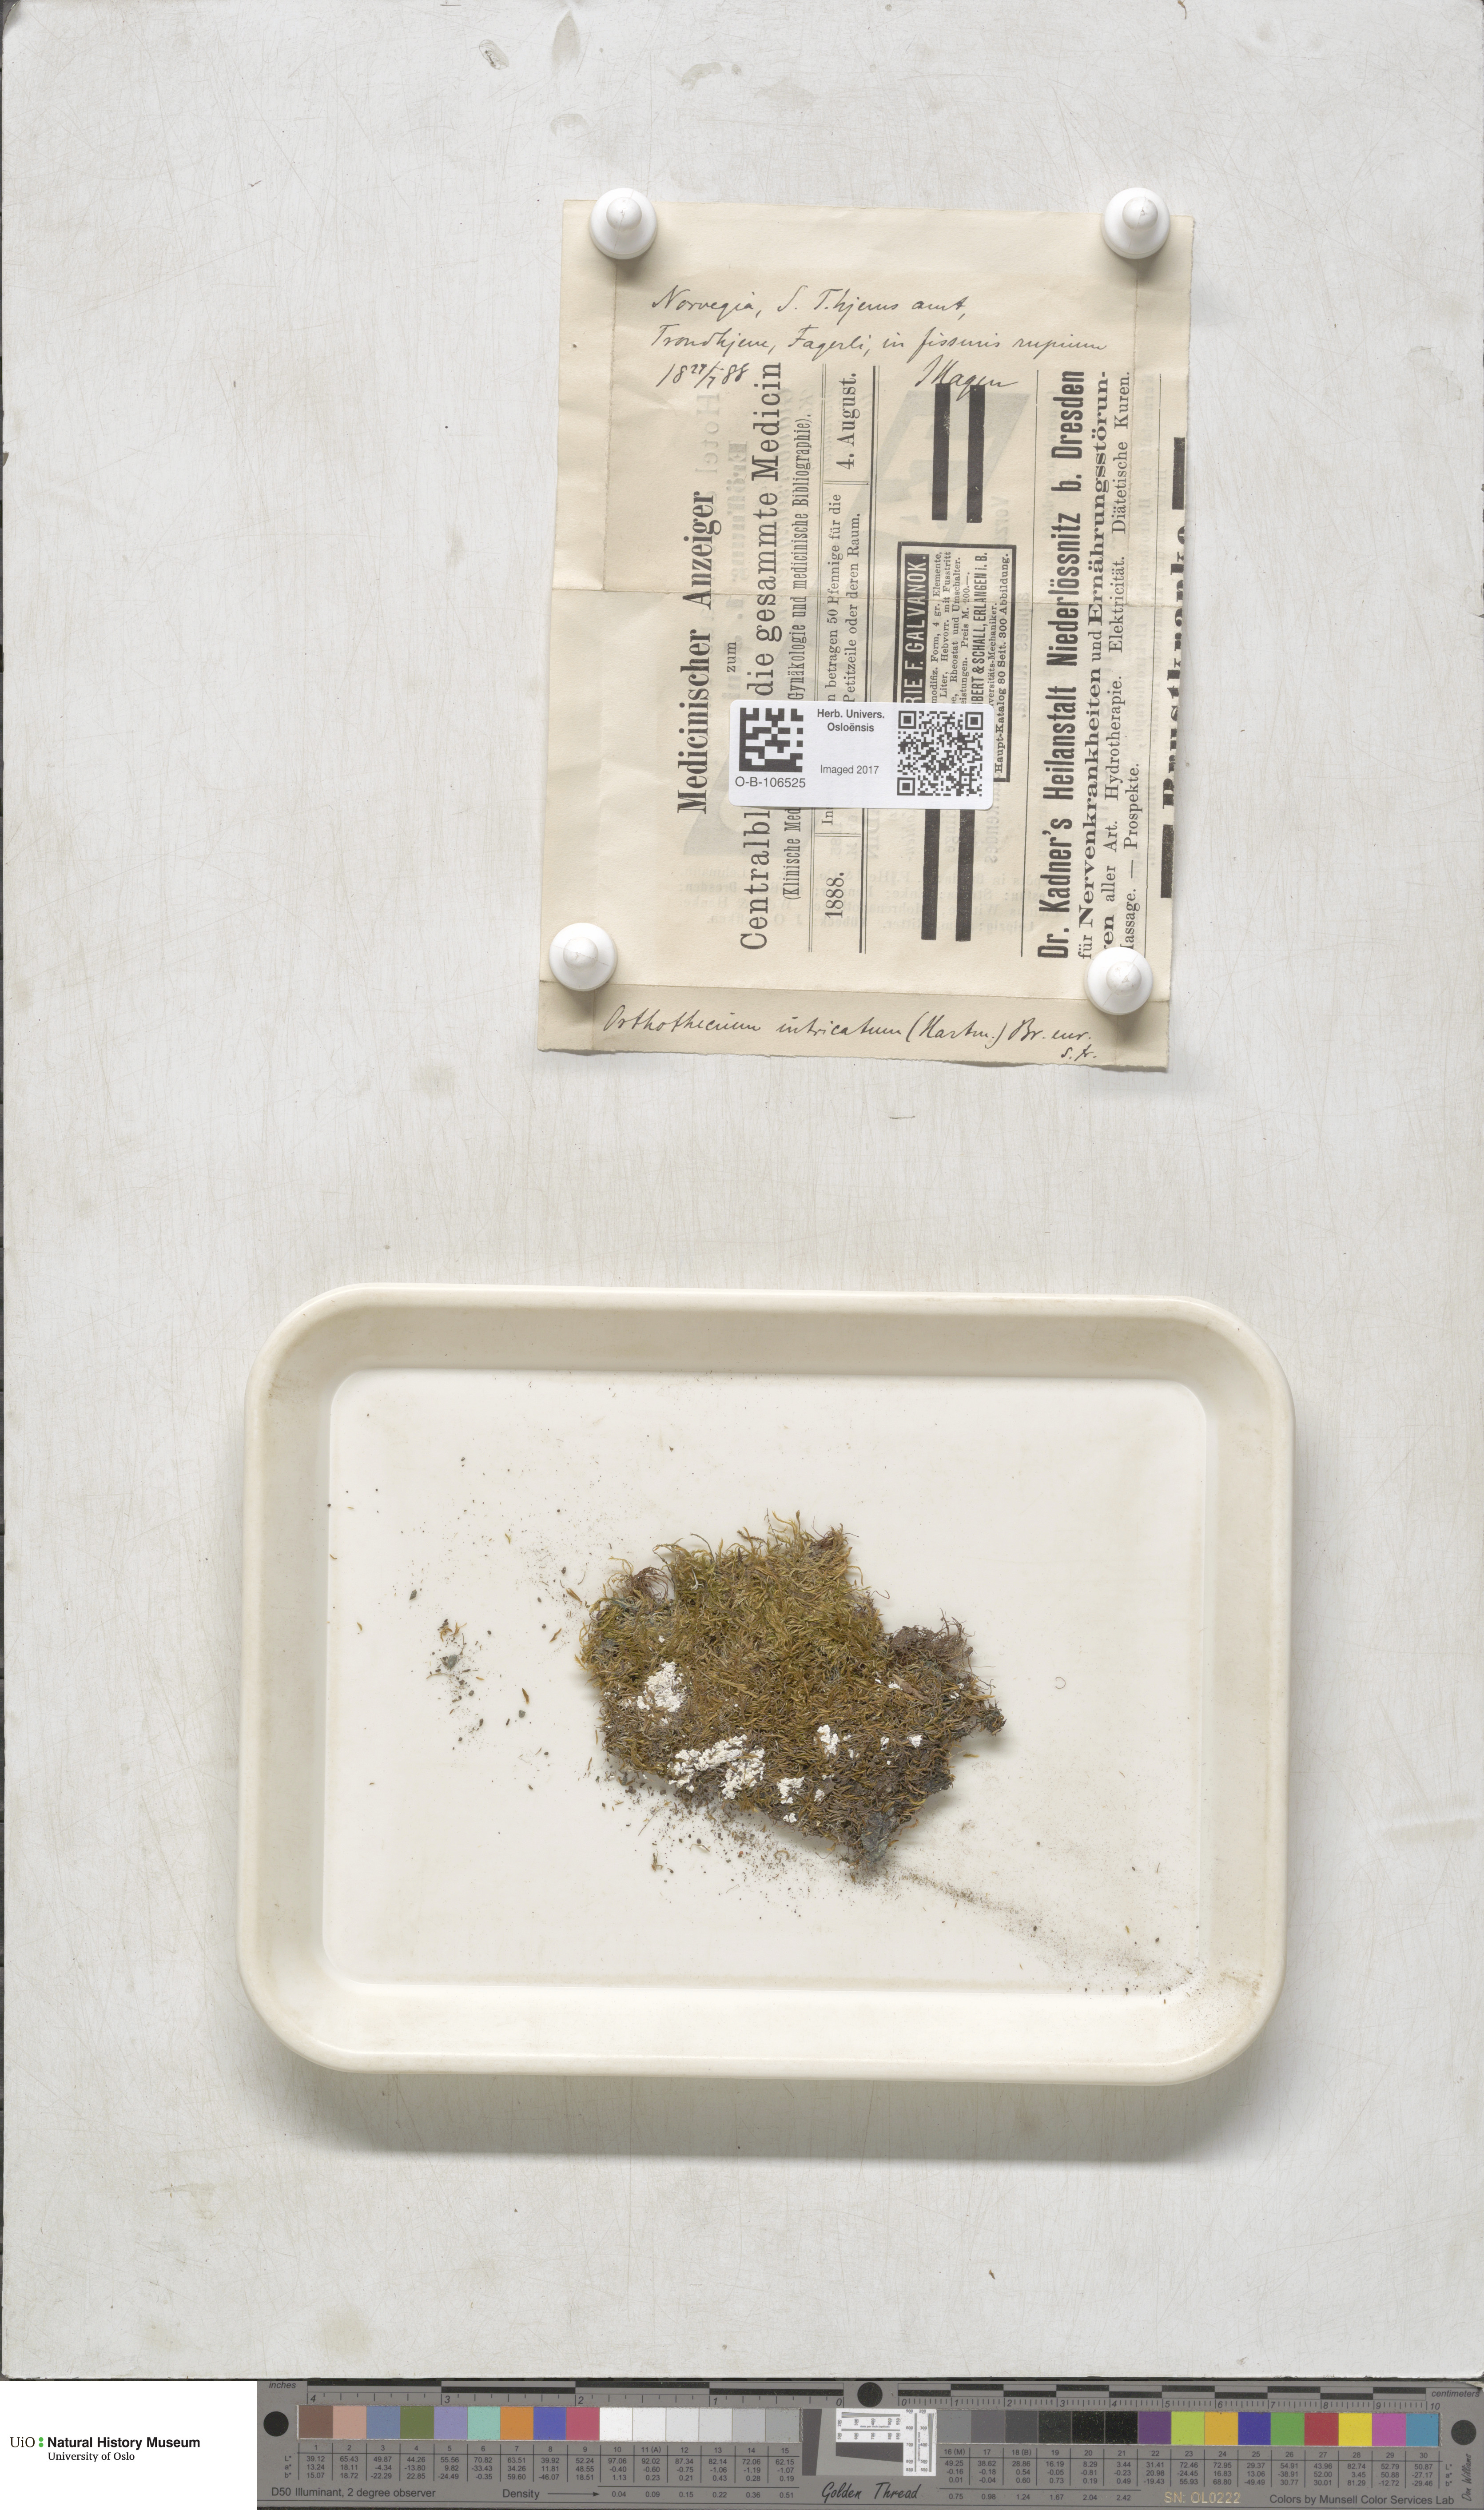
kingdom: Plantae
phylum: Bryophyta
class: Bryopsida
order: Hypnales
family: Plagiotheciaceae
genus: Orthothecium
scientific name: Orthothecium intricatum
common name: Fine-leaved erect-capsule moss
